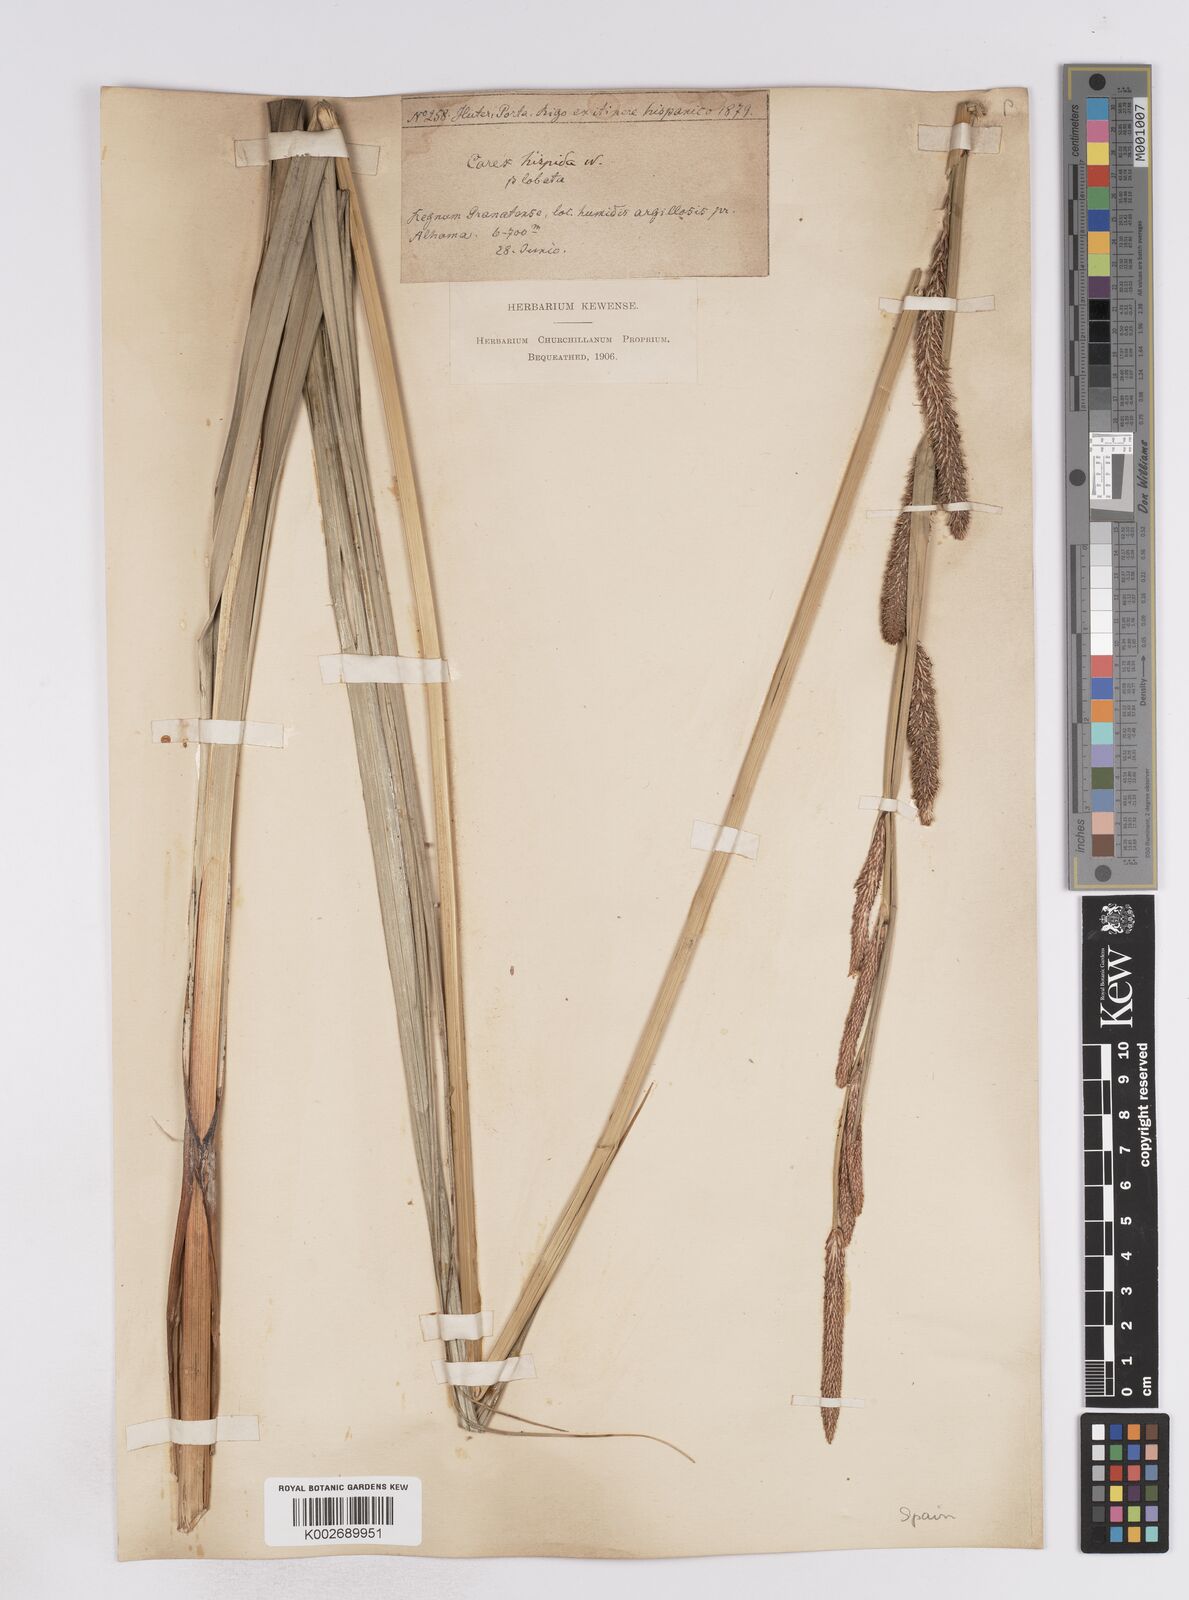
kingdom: Plantae
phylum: Tracheophyta
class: Liliopsida
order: Poales
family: Cyperaceae
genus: Carex
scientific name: Carex hispida
